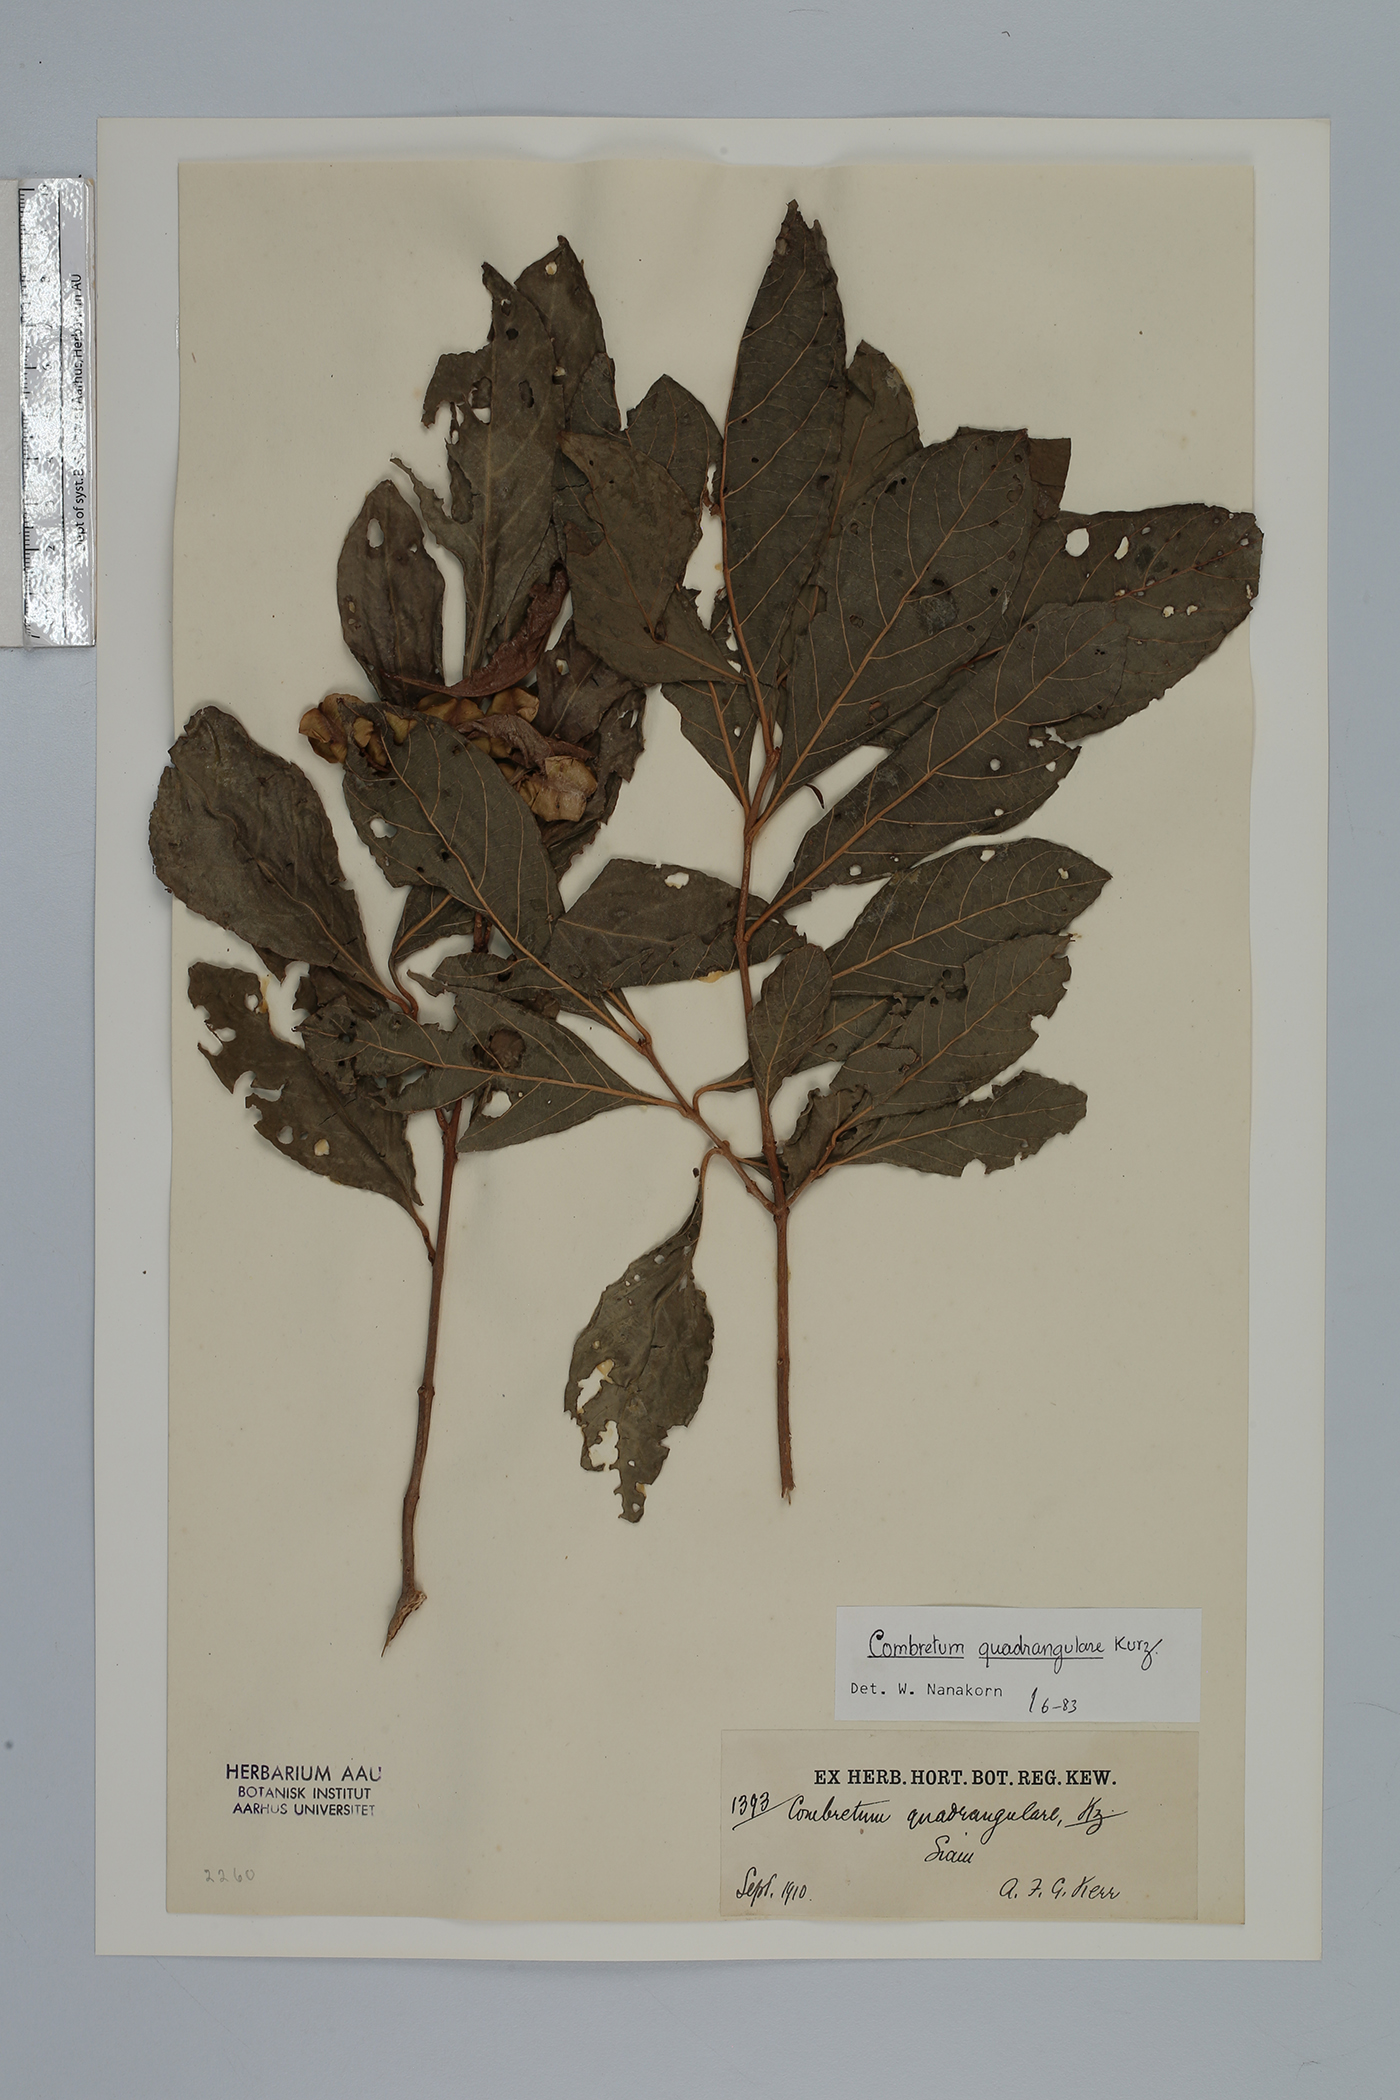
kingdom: Plantae
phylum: Tracheophyta
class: Magnoliopsida
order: Myrtales
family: Combretaceae
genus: Combretum
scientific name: Combretum quadrangulare
